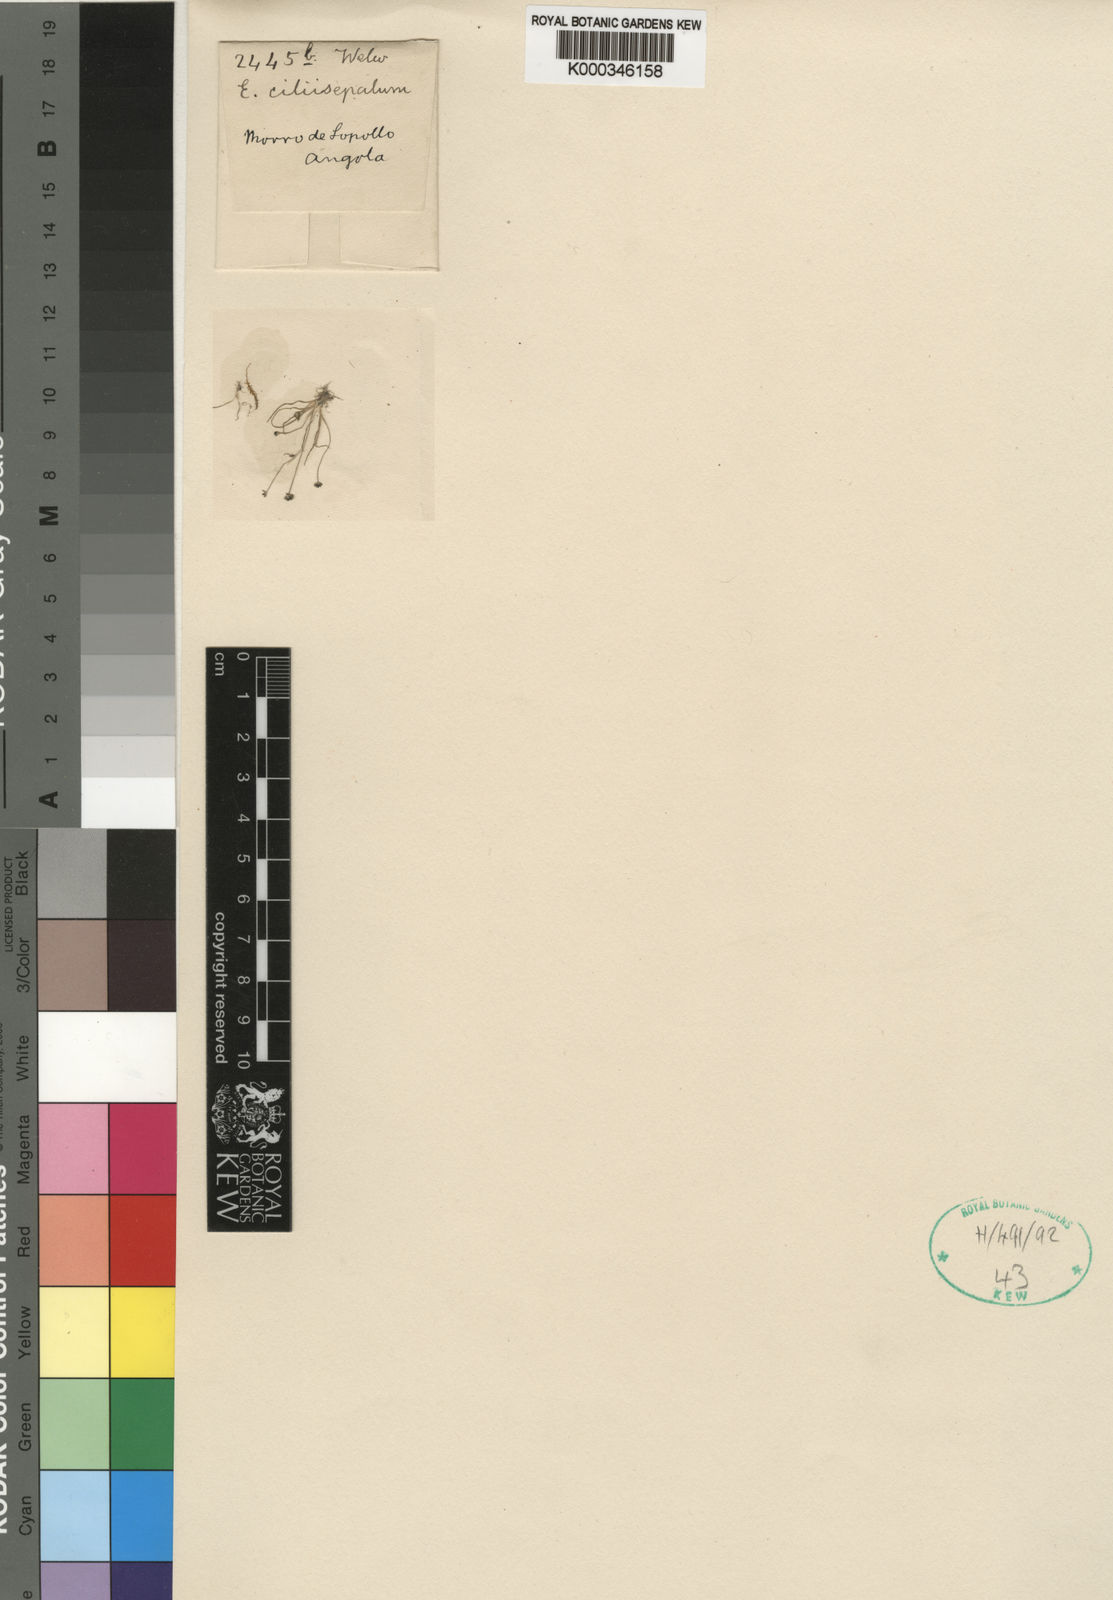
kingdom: Plantae
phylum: Tracheophyta
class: Liliopsida
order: Poales
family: Eriocaulaceae
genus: Eriocaulon
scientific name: Eriocaulon abyssinicum
